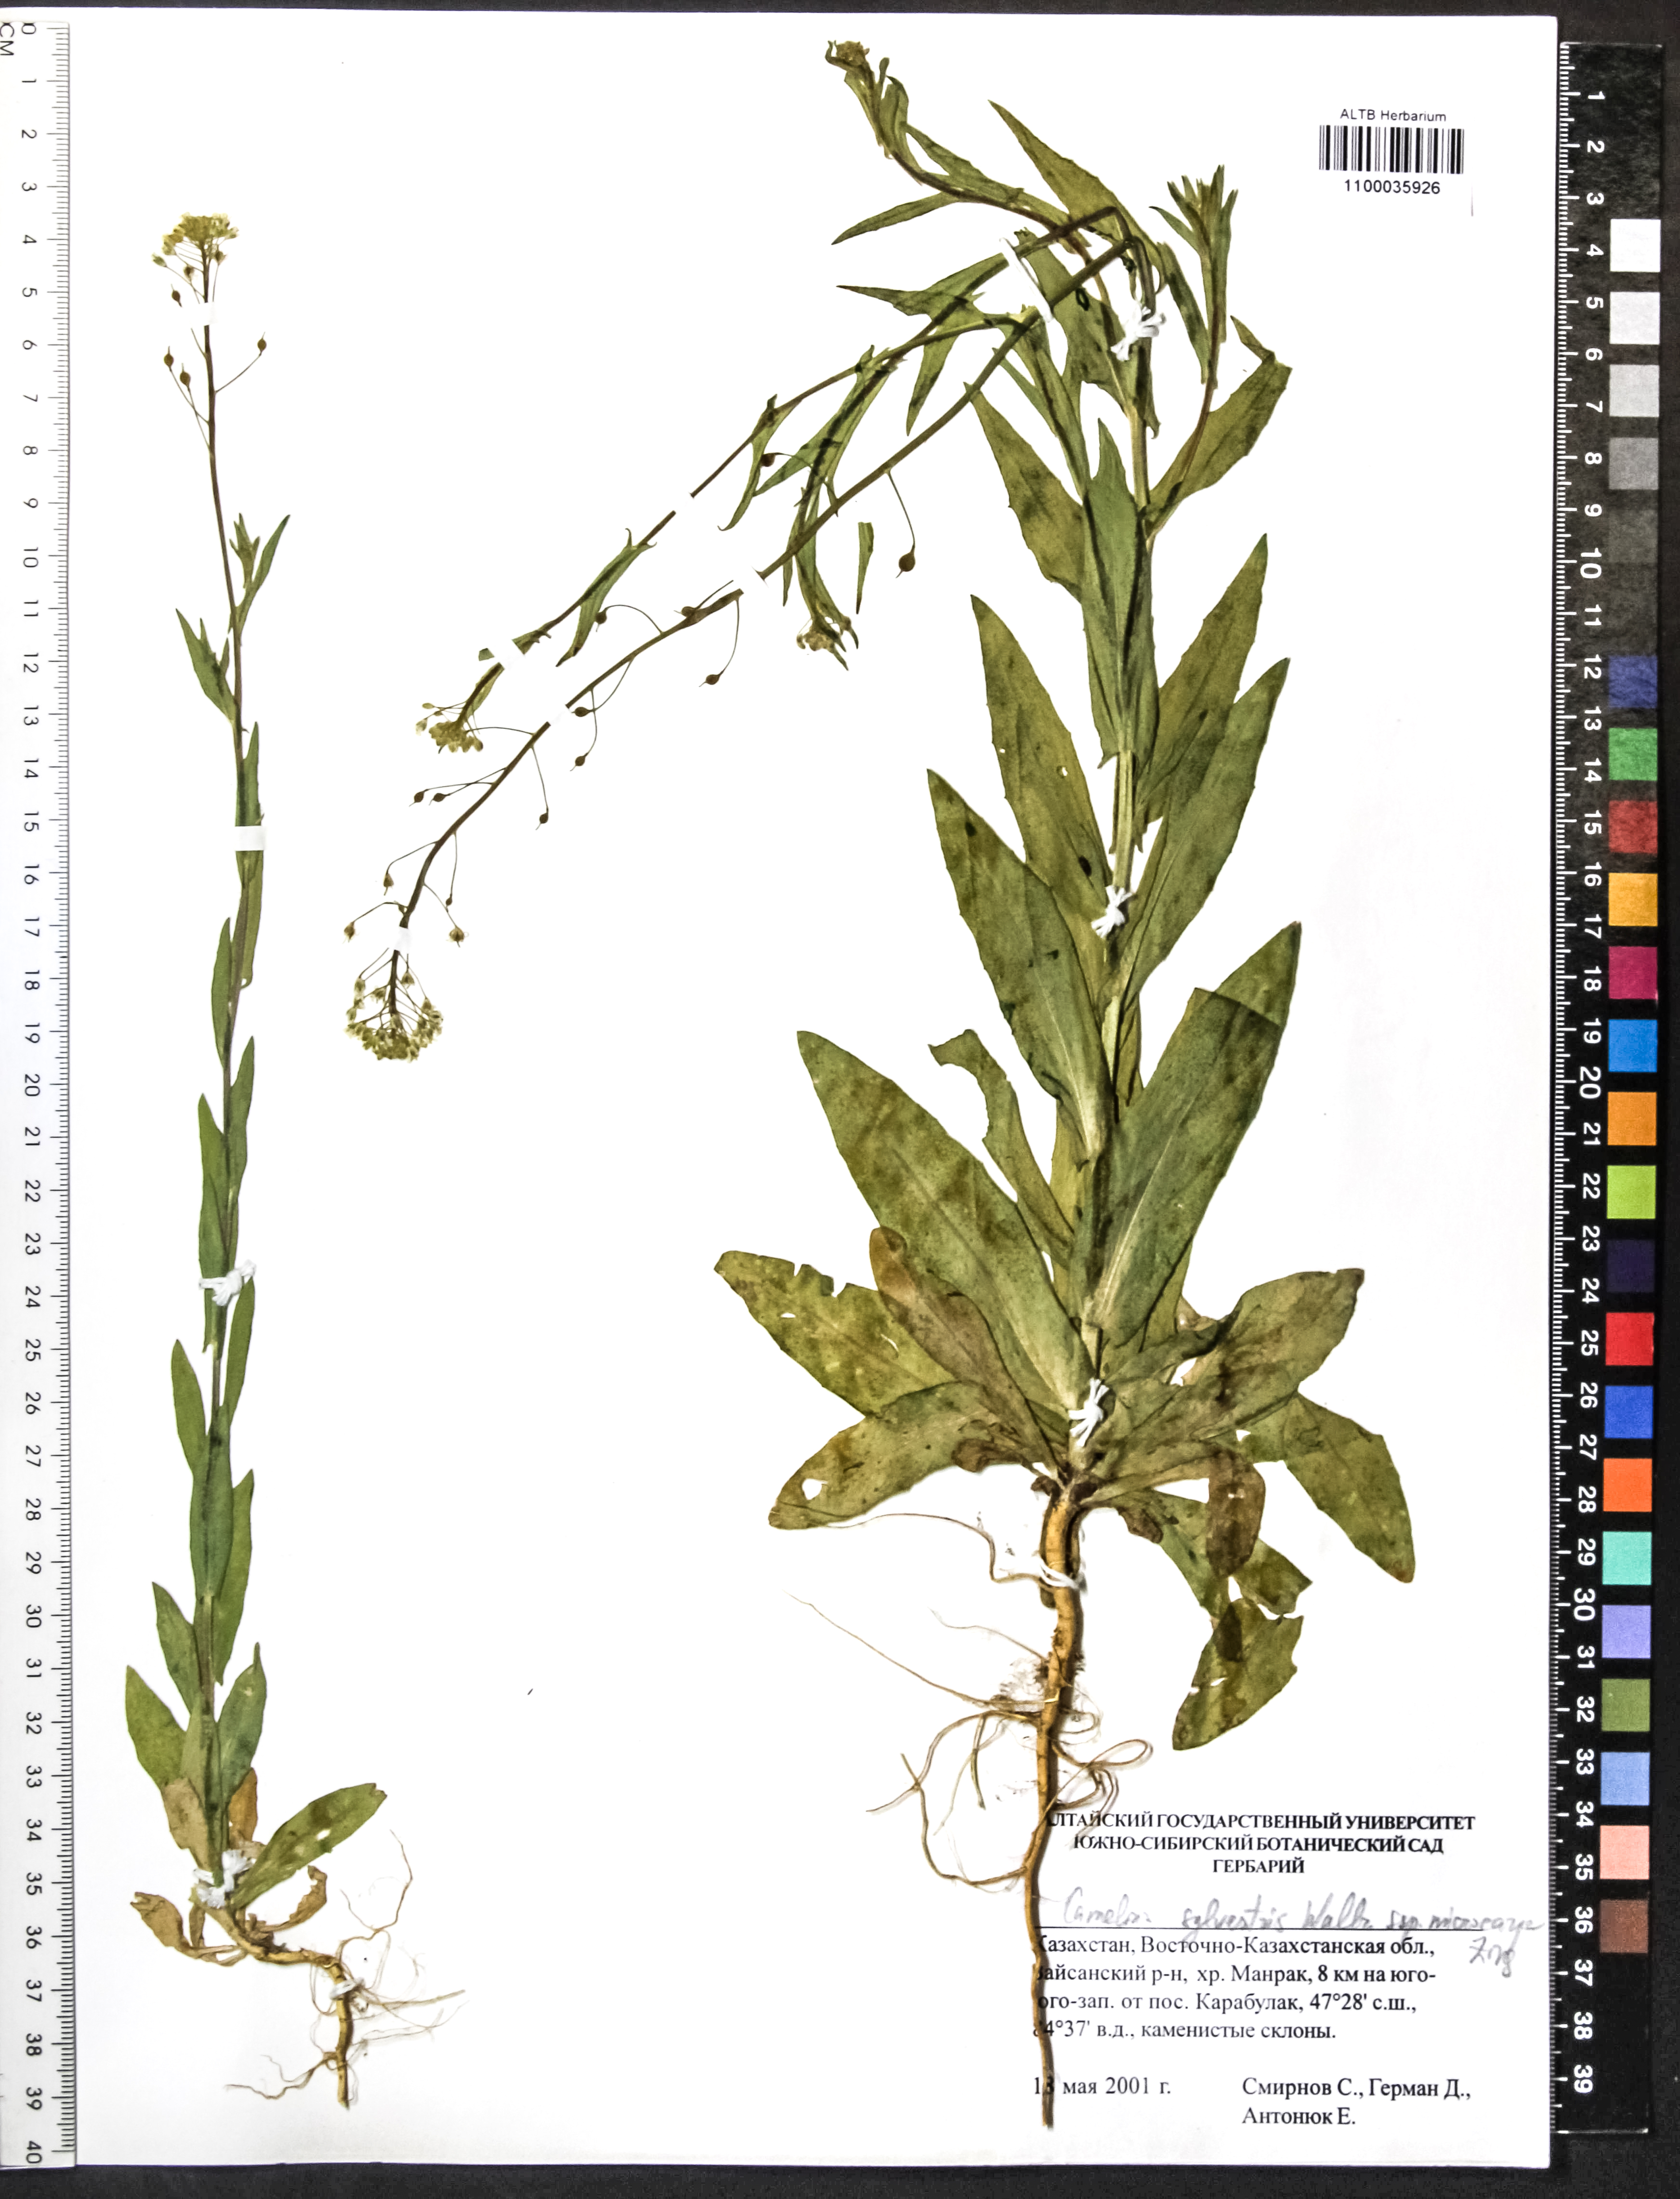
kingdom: Plantae
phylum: Tracheophyta
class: Magnoliopsida
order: Brassicales
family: Brassicaceae
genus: Camelina
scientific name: Camelina microcarpa
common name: Lesser gold-of-pleasure
